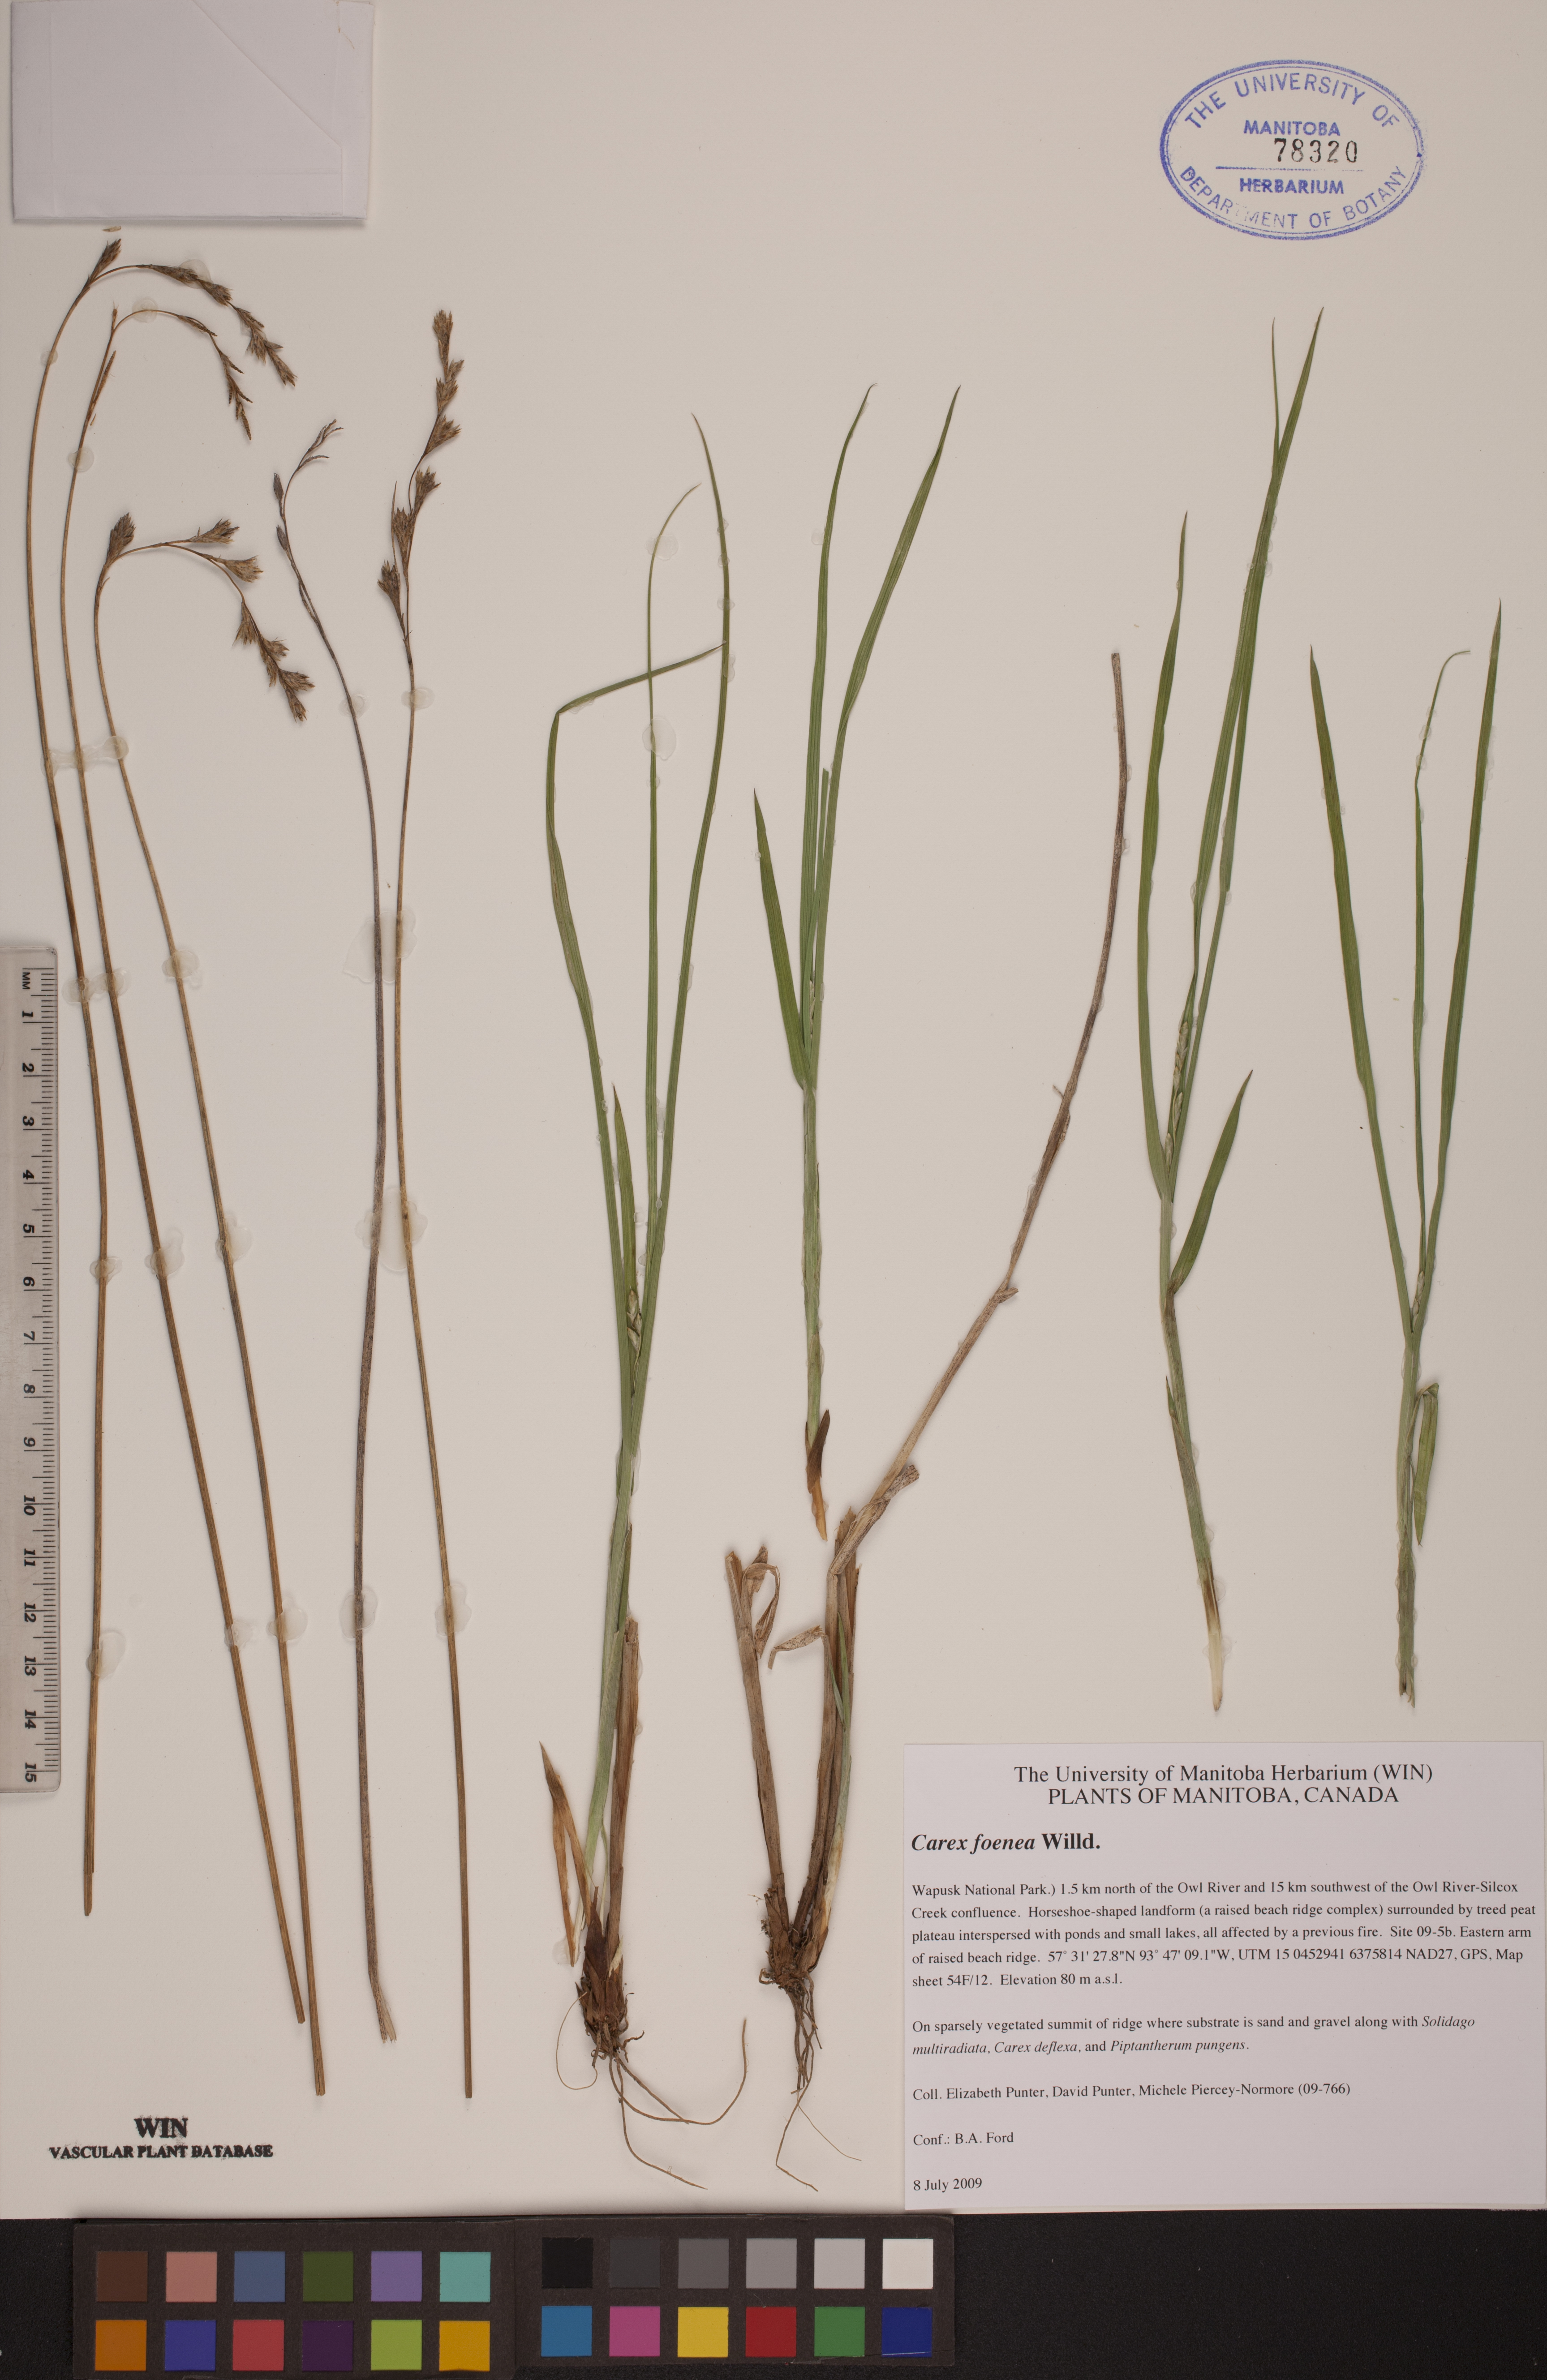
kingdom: Plantae
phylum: Tracheophyta
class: Liliopsida
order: Poales
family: Cyperaceae
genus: Carex
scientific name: Carex foenea
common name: Bronze sedge
